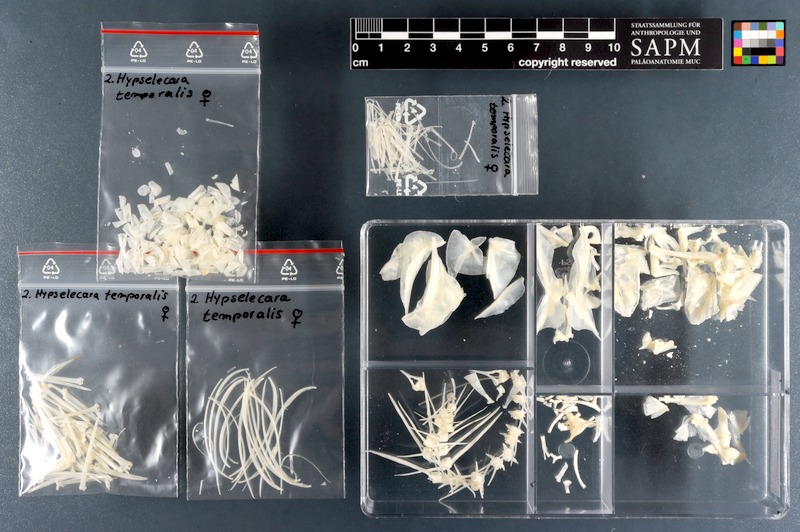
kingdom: Animalia
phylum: Chordata
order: Perciformes
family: Cichlidae
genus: Hypselecara
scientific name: Hypselecara temporalis
